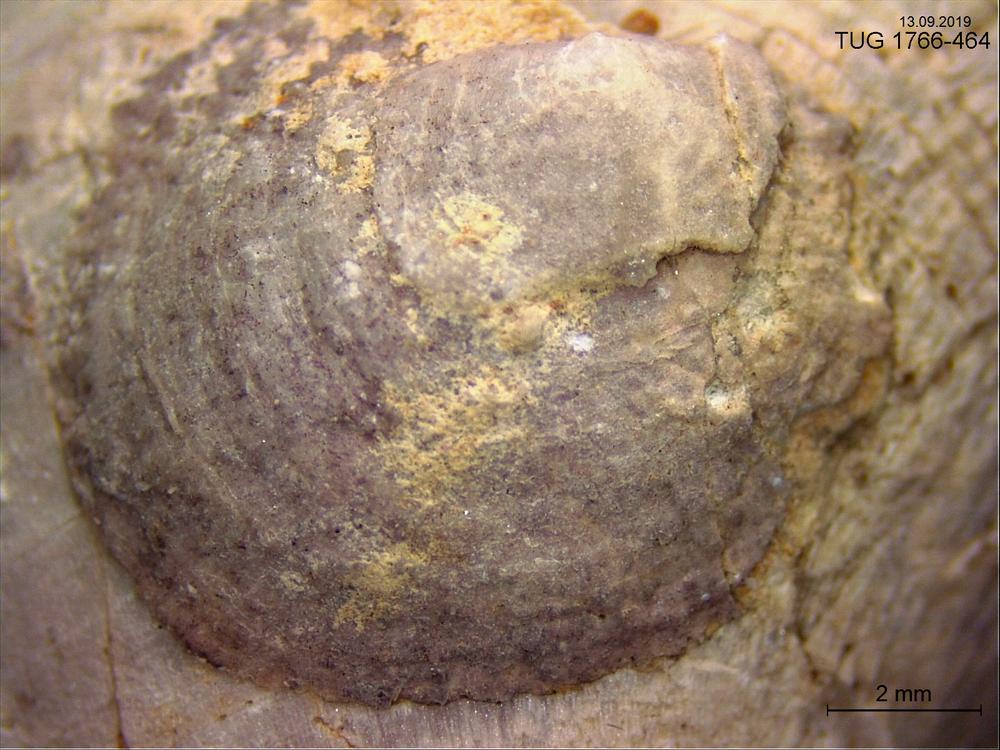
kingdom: Animalia
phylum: Brachiopoda
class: Craniata
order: Craniida
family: Craniidae
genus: Philhedra
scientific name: Philhedra
